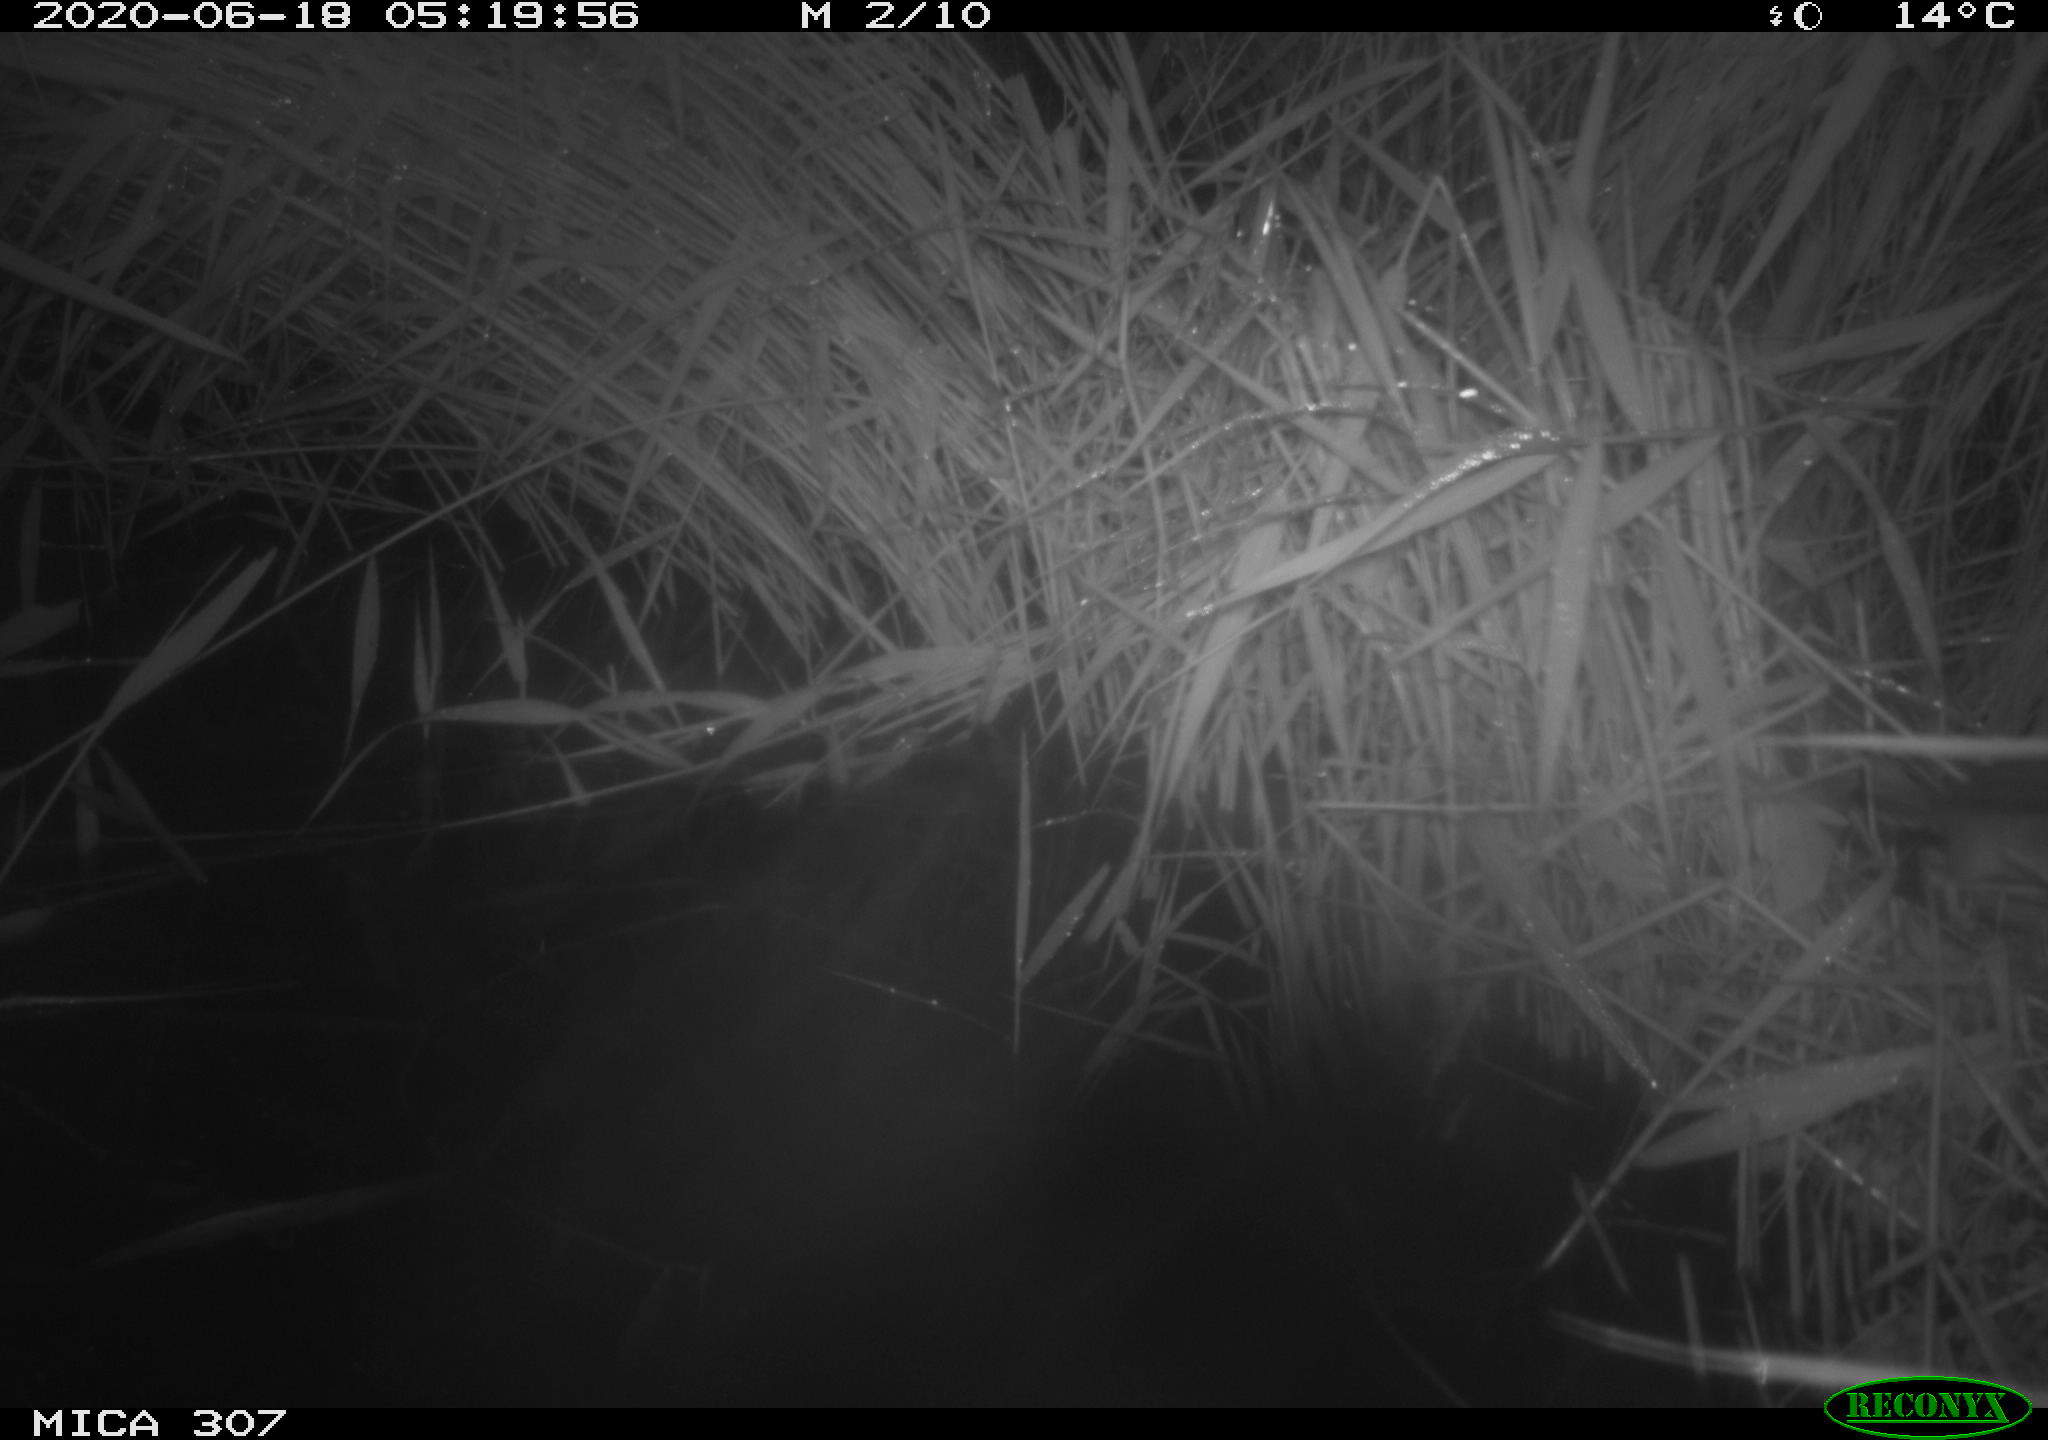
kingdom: Animalia
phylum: Chordata
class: Mammalia
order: Rodentia
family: Muridae
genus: Rattus
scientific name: Rattus norvegicus
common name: Brown rat
